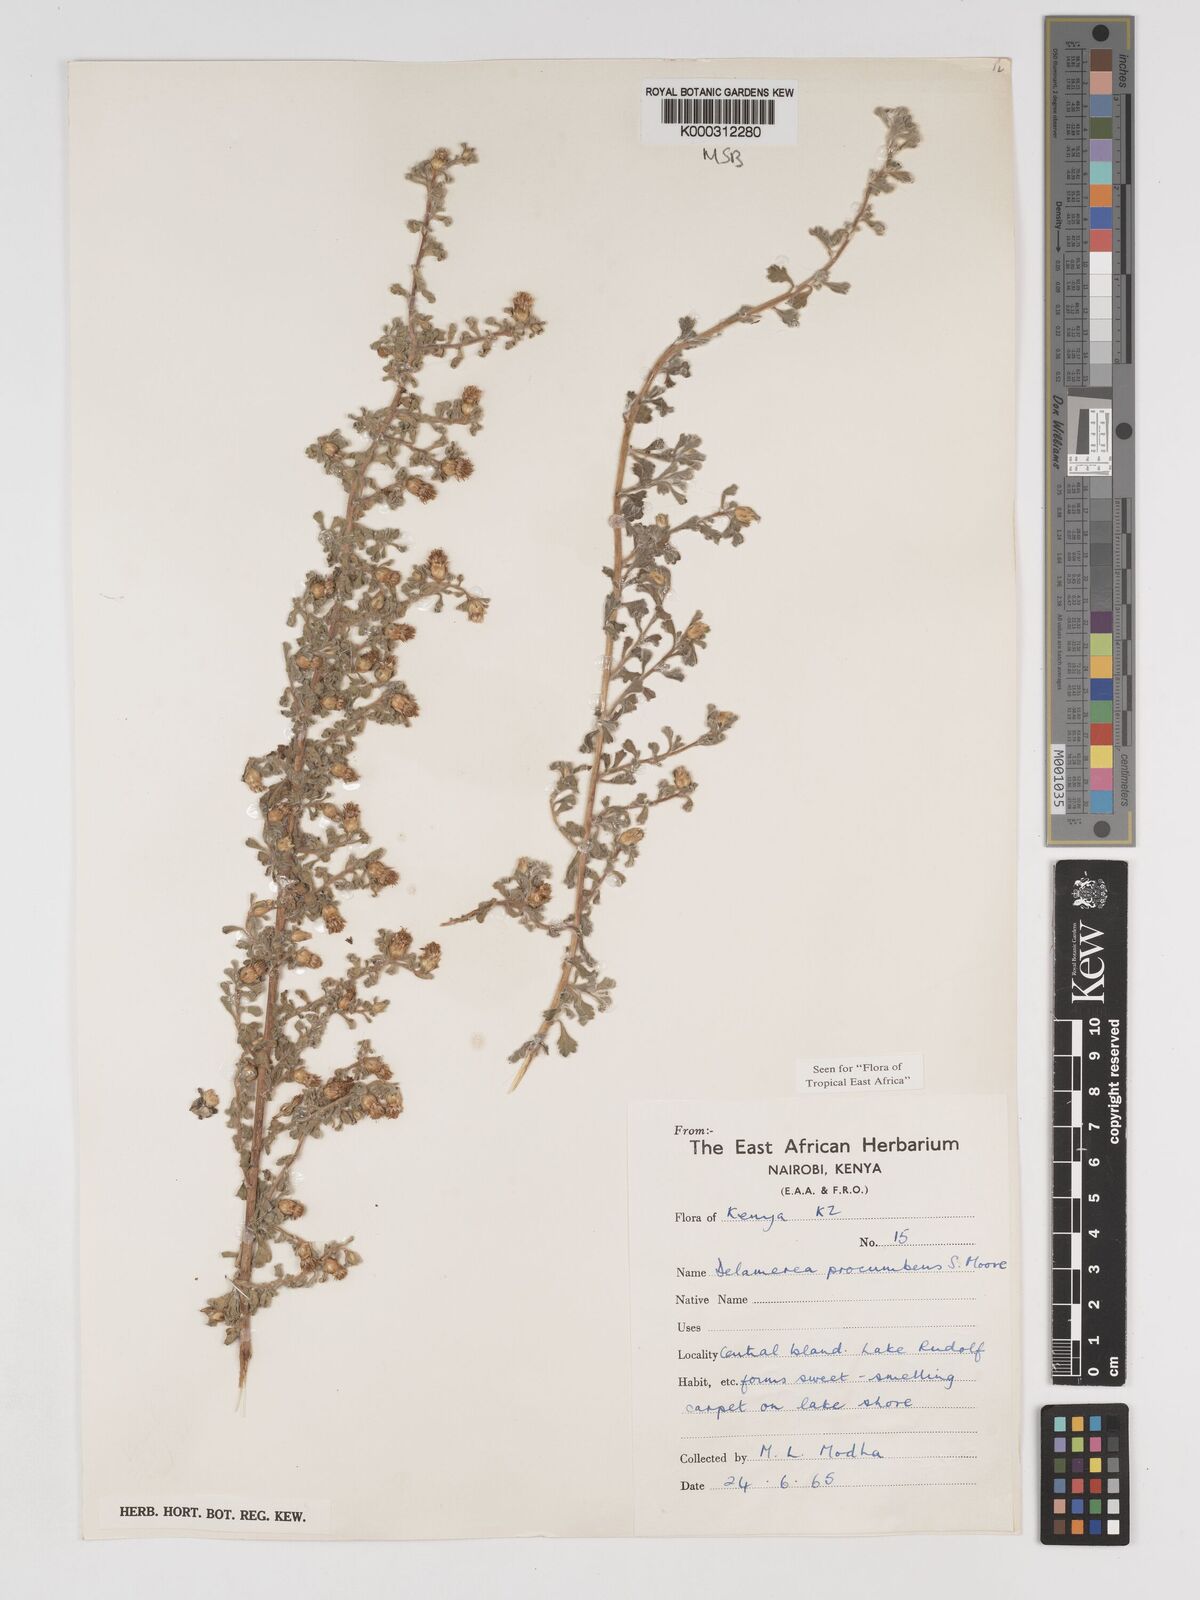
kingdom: Plantae
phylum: Tracheophyta
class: Magnoliopsida
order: Asterales
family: Asteraceae
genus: Delamerea
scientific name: Delamerea procumbens
